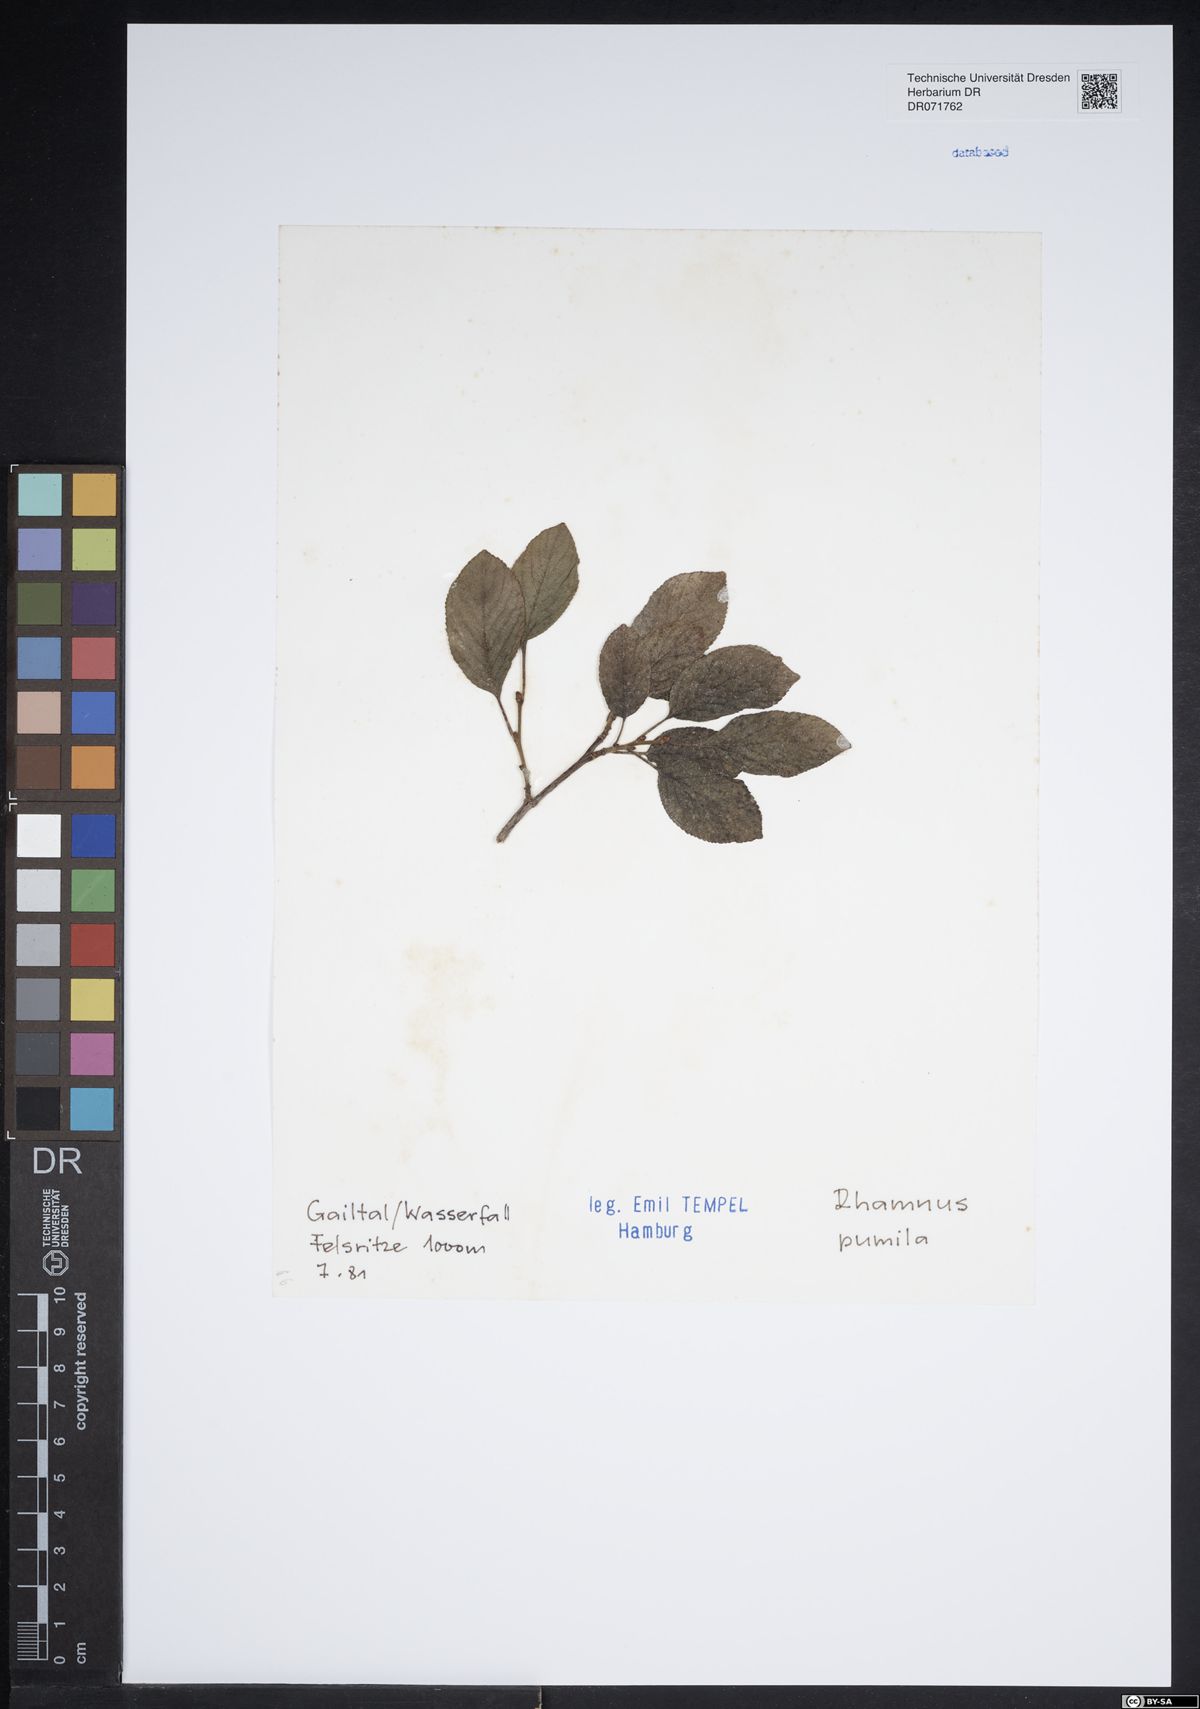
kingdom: Plantae
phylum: Tracheophyta
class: Magnoliopsida
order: Rosales
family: Rhamnaceae
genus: Atadinus
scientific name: Atadinus pumilus
